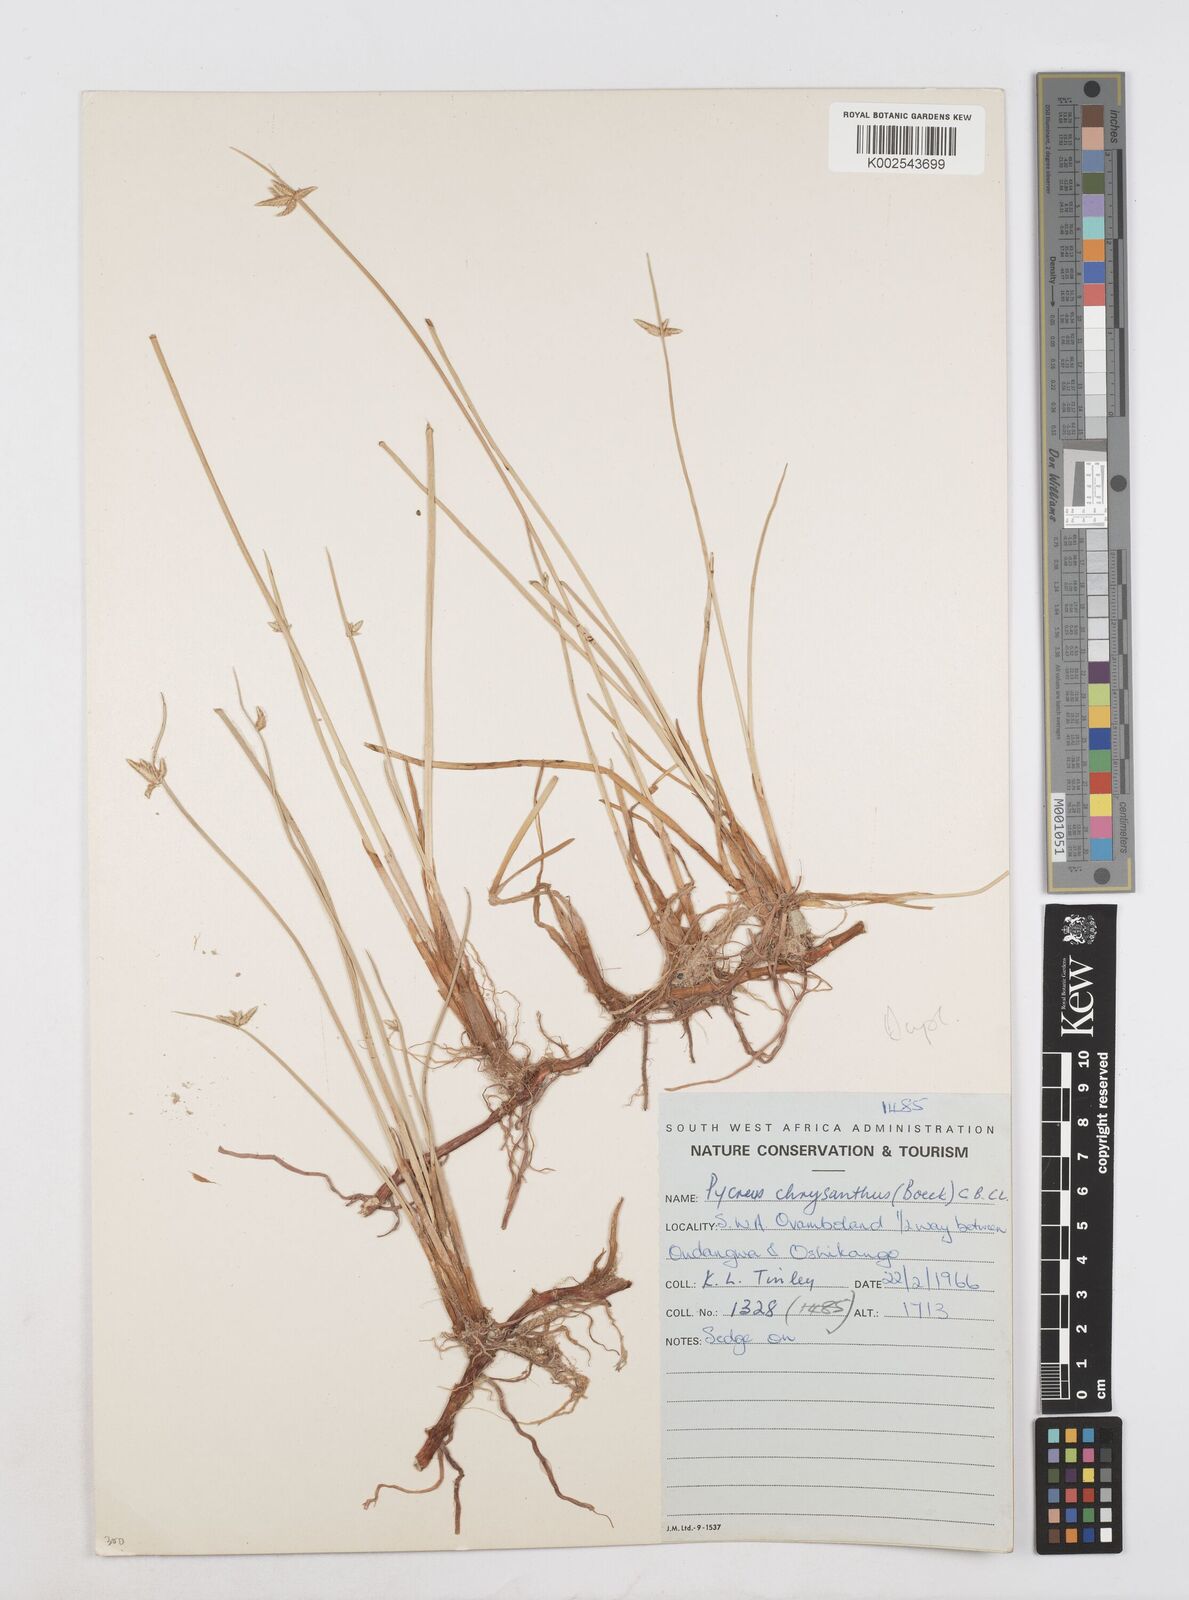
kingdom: Plantae
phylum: Tracheophyta
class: Liliopsida
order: Poales
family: Cyperaceae
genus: Cyperus
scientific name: Cyperus chrysanthus
